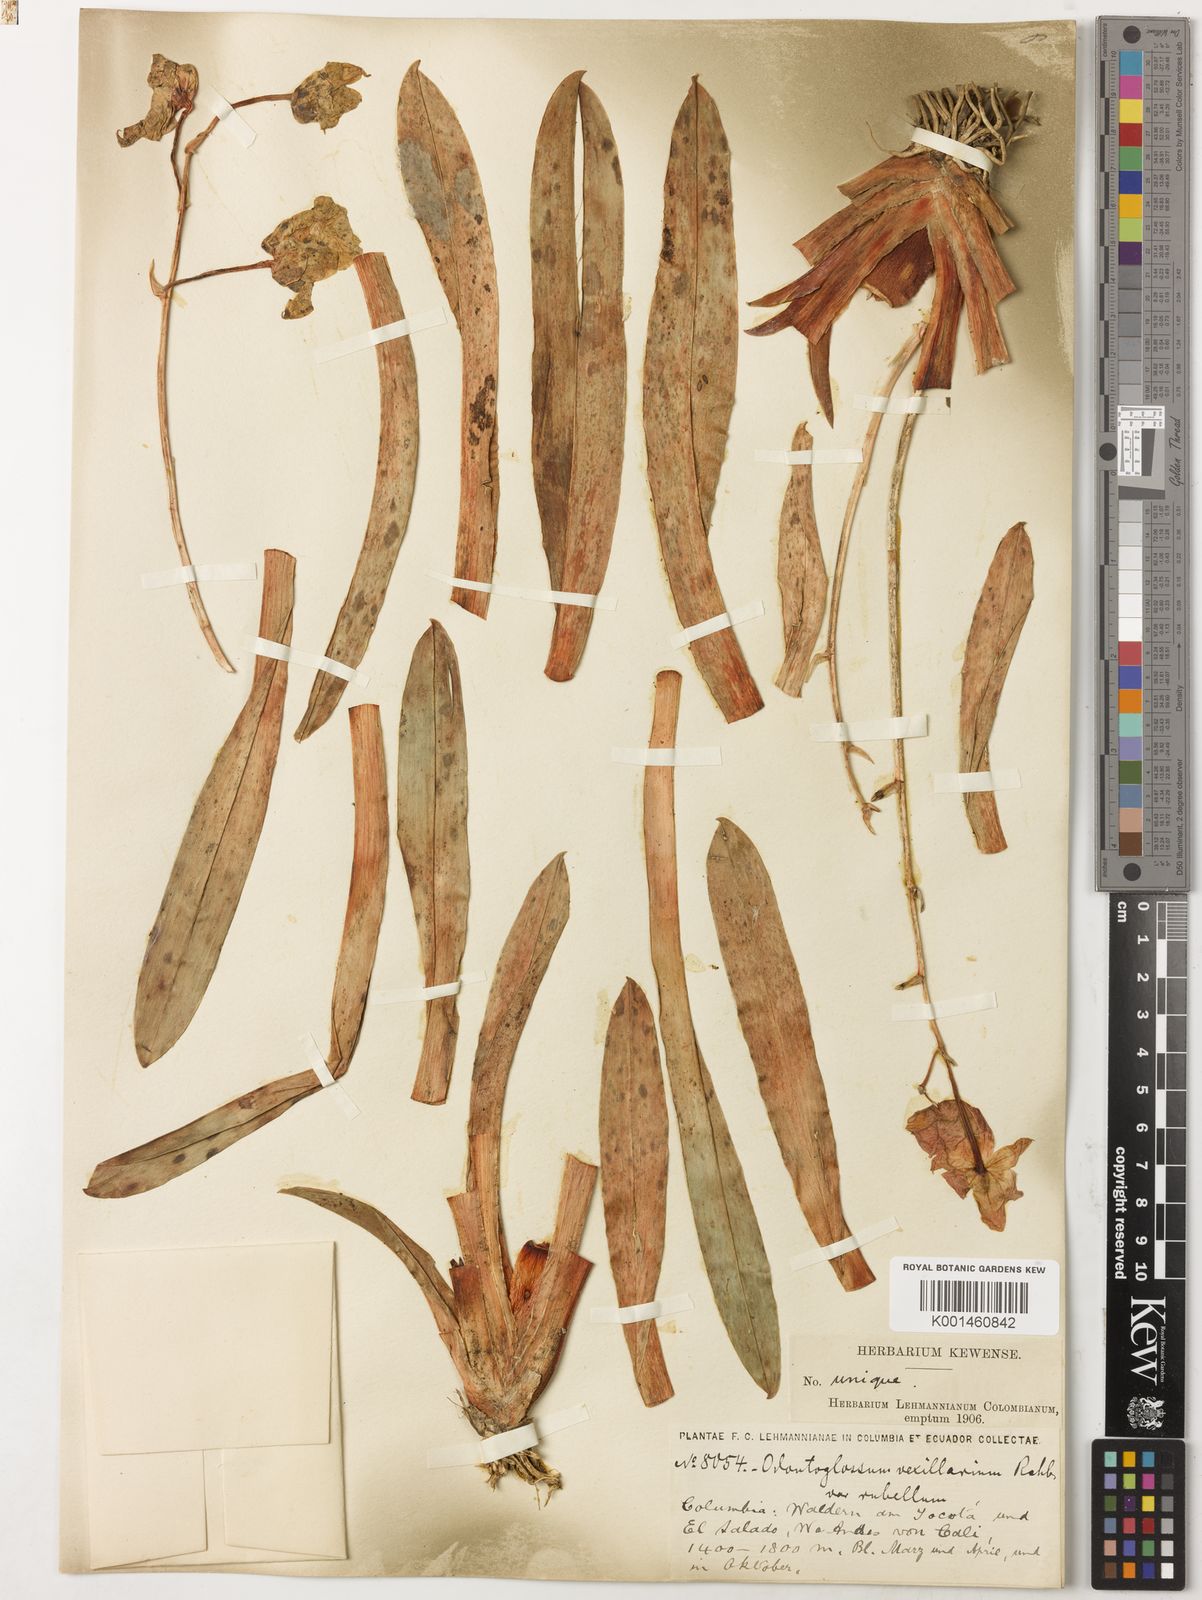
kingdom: Plantae
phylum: Tracheophyta
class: Liliopsida
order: Asparagales
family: Orchidaceae
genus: Miltoniopsis
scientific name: Miltoniopsis vexillaria
